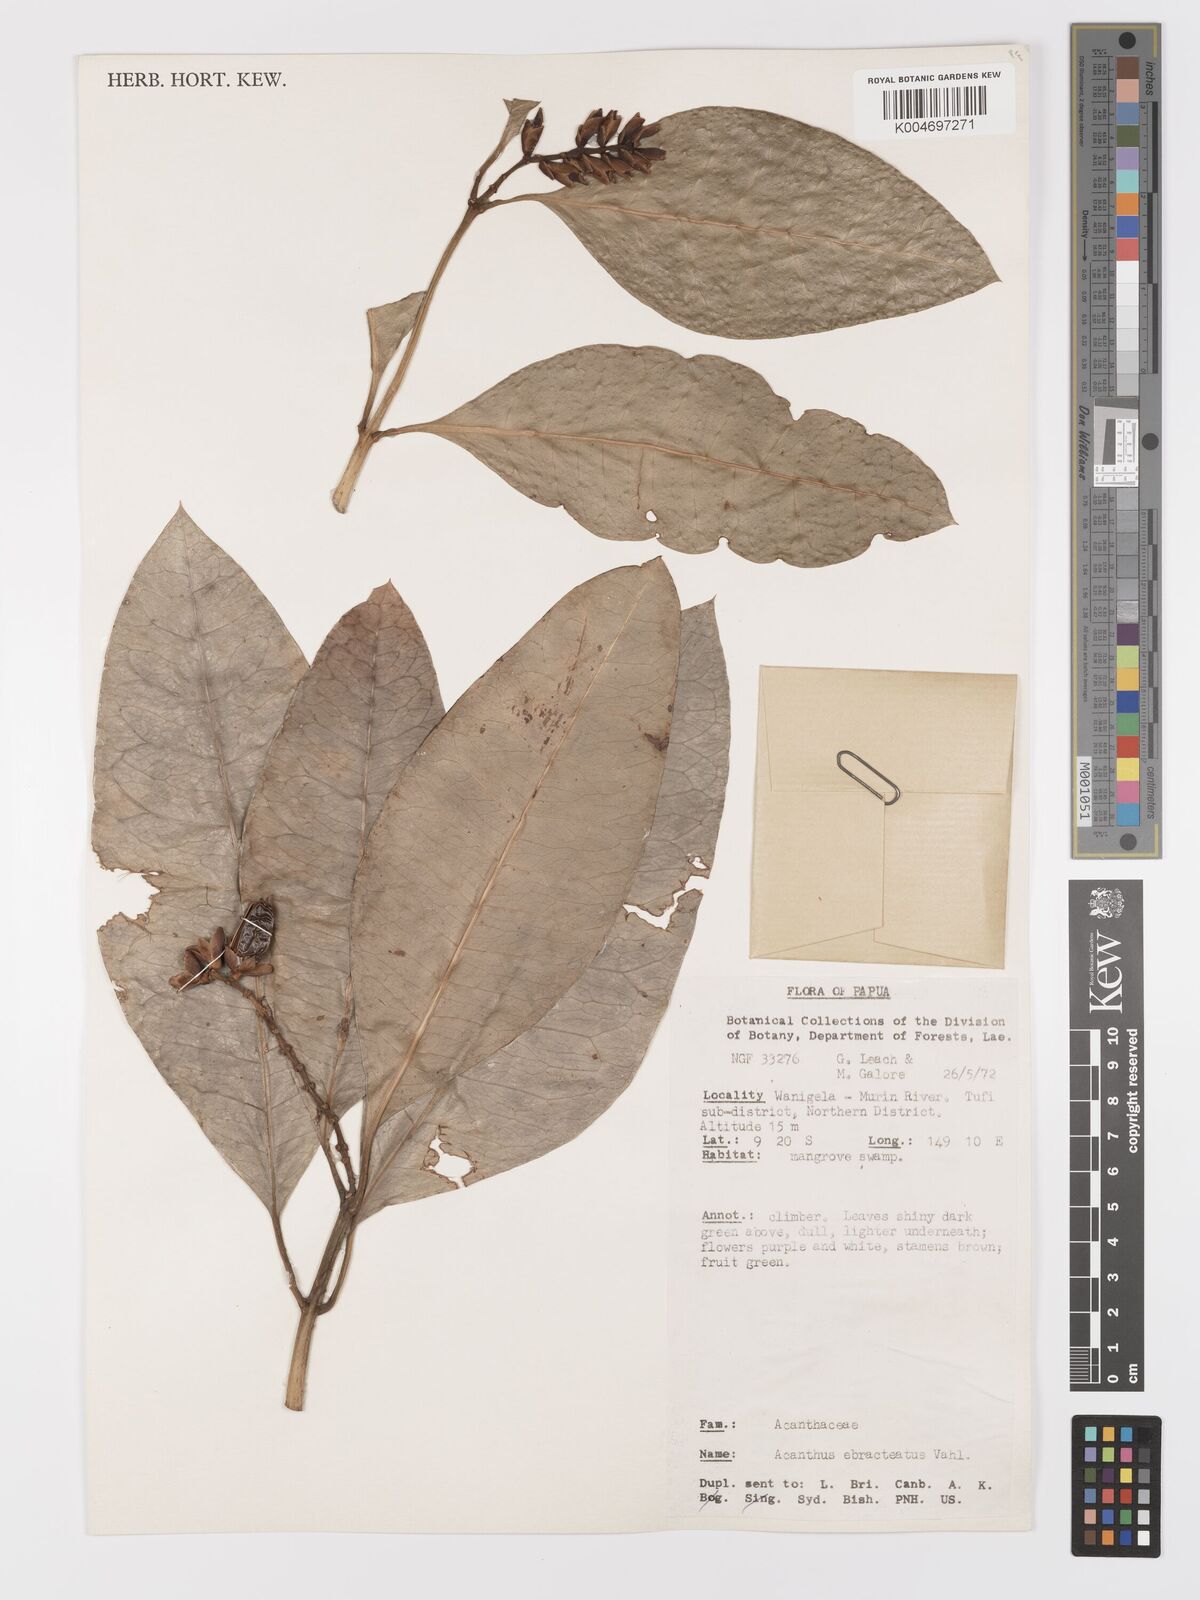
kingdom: Plantae
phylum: Tracheophyta
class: Magnoliopsida
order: Lamiales
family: Acanthaceae
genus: Acanthus
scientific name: Acanthus ebracteatus
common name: Acanthus
